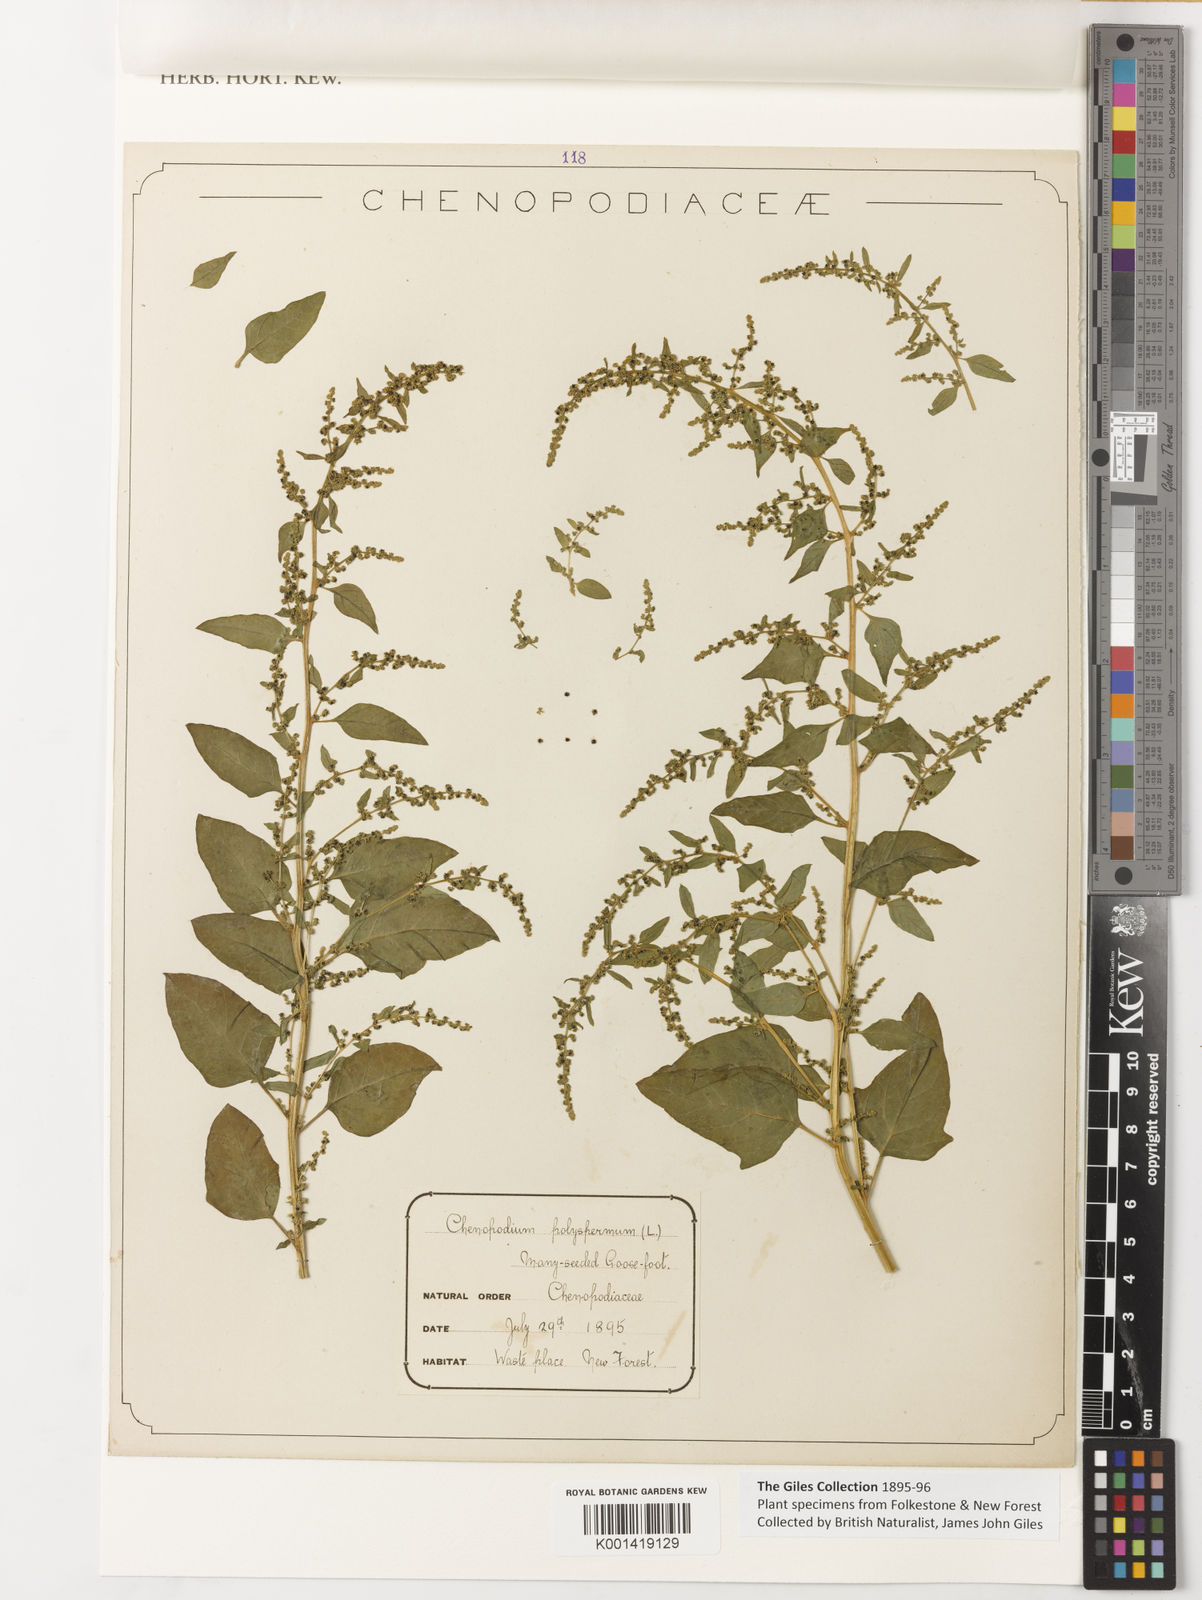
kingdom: Plantae
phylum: Tracheophyta
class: Magnoliopsida
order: Caryophyllales
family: Amaranthaceae
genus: Chenopodium
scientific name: Chenopodium
